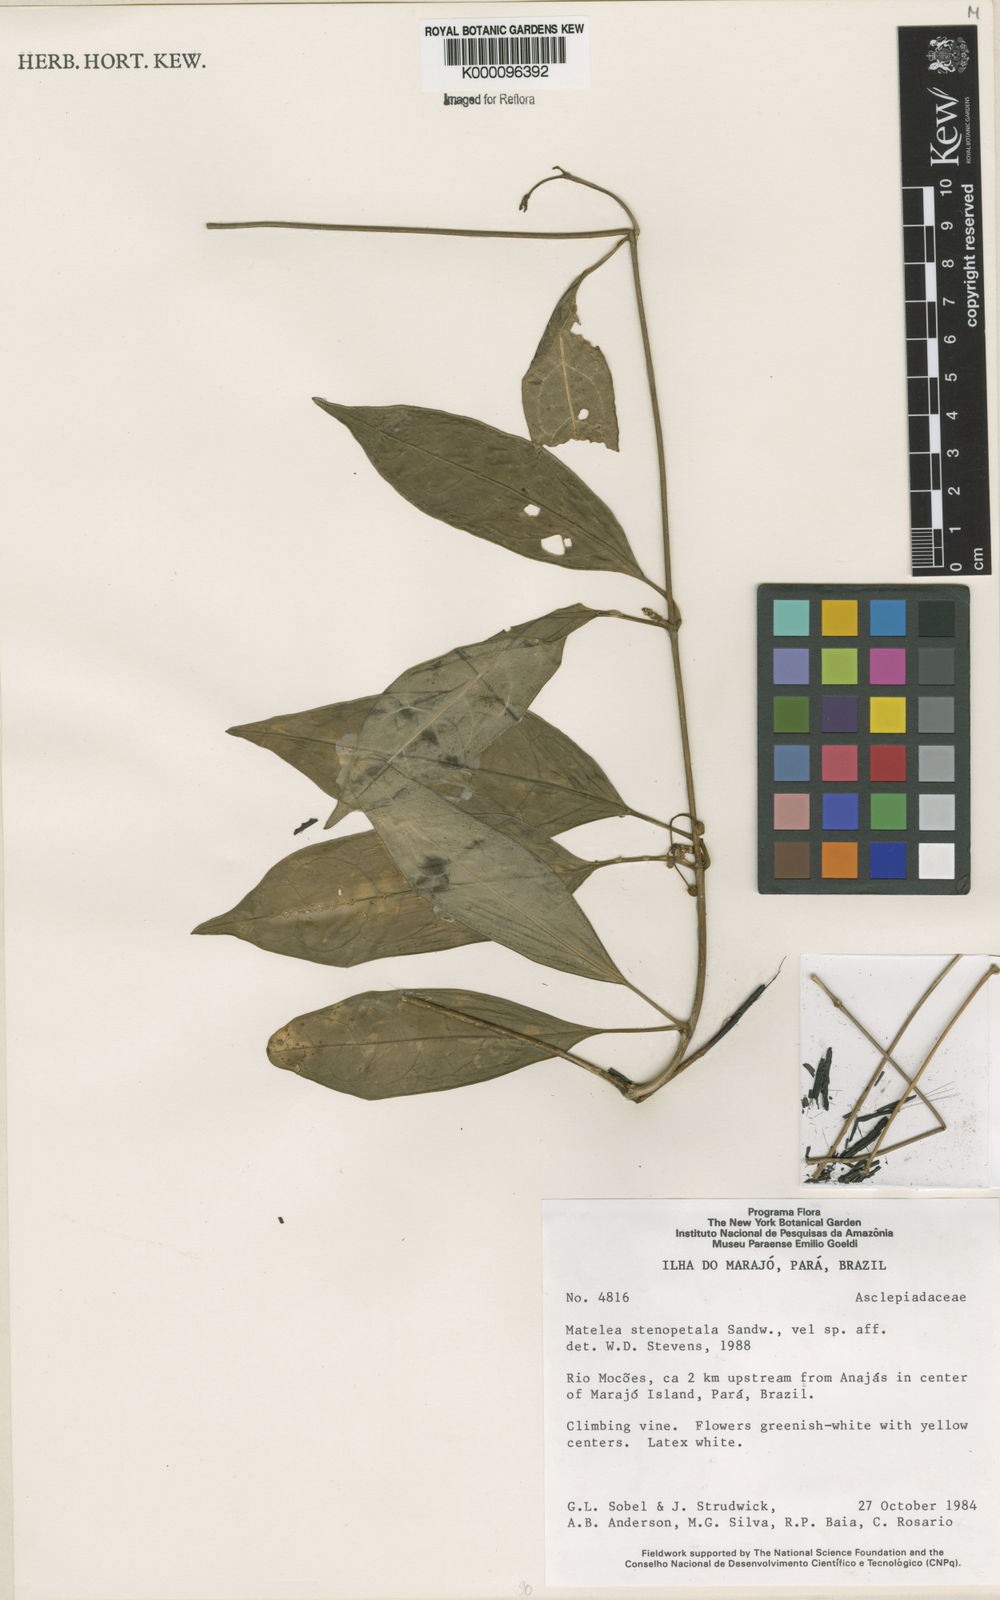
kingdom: Plantae
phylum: Tracheophyta
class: Magnoliopsida
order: Gentianales
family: Apocynaceae
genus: Matelea
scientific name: Matelea stenopetala
